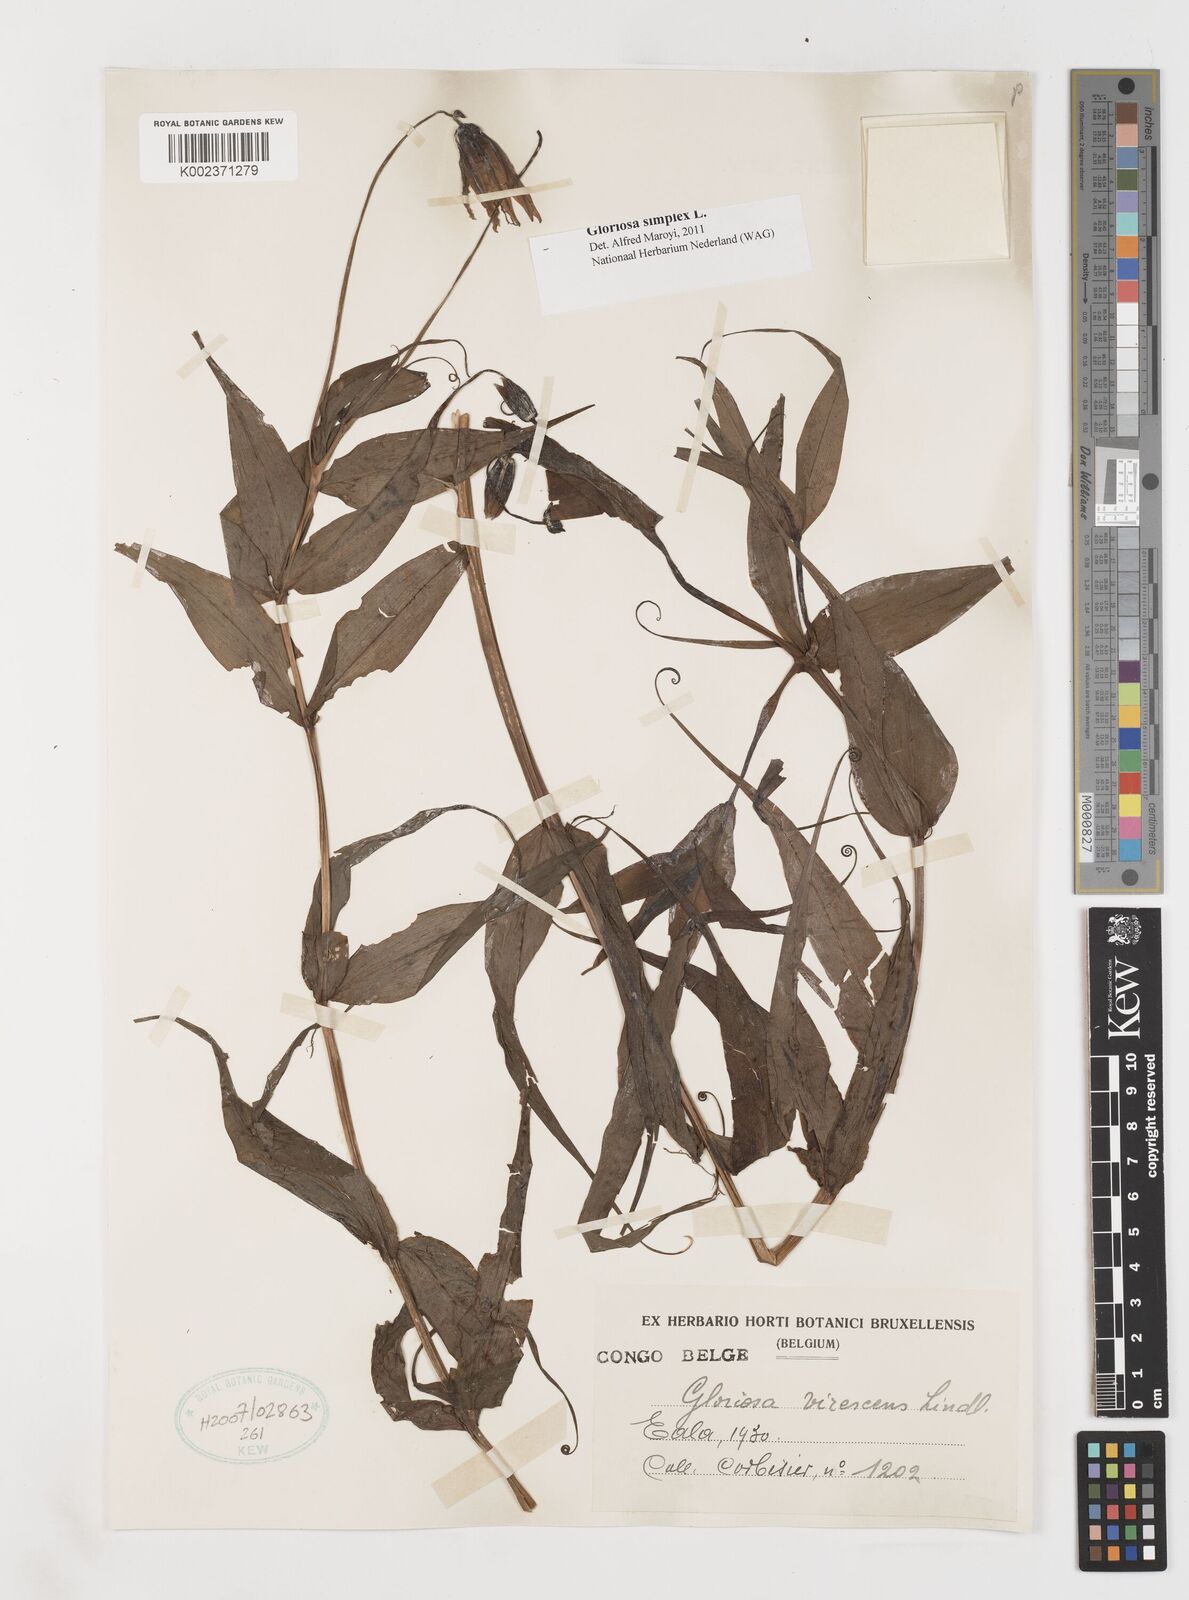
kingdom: Plantae
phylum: Tracheophyta
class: Liliopsida
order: Liliales
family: Colchicaceae
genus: Gloriosa
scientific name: Gloriosa simplex
